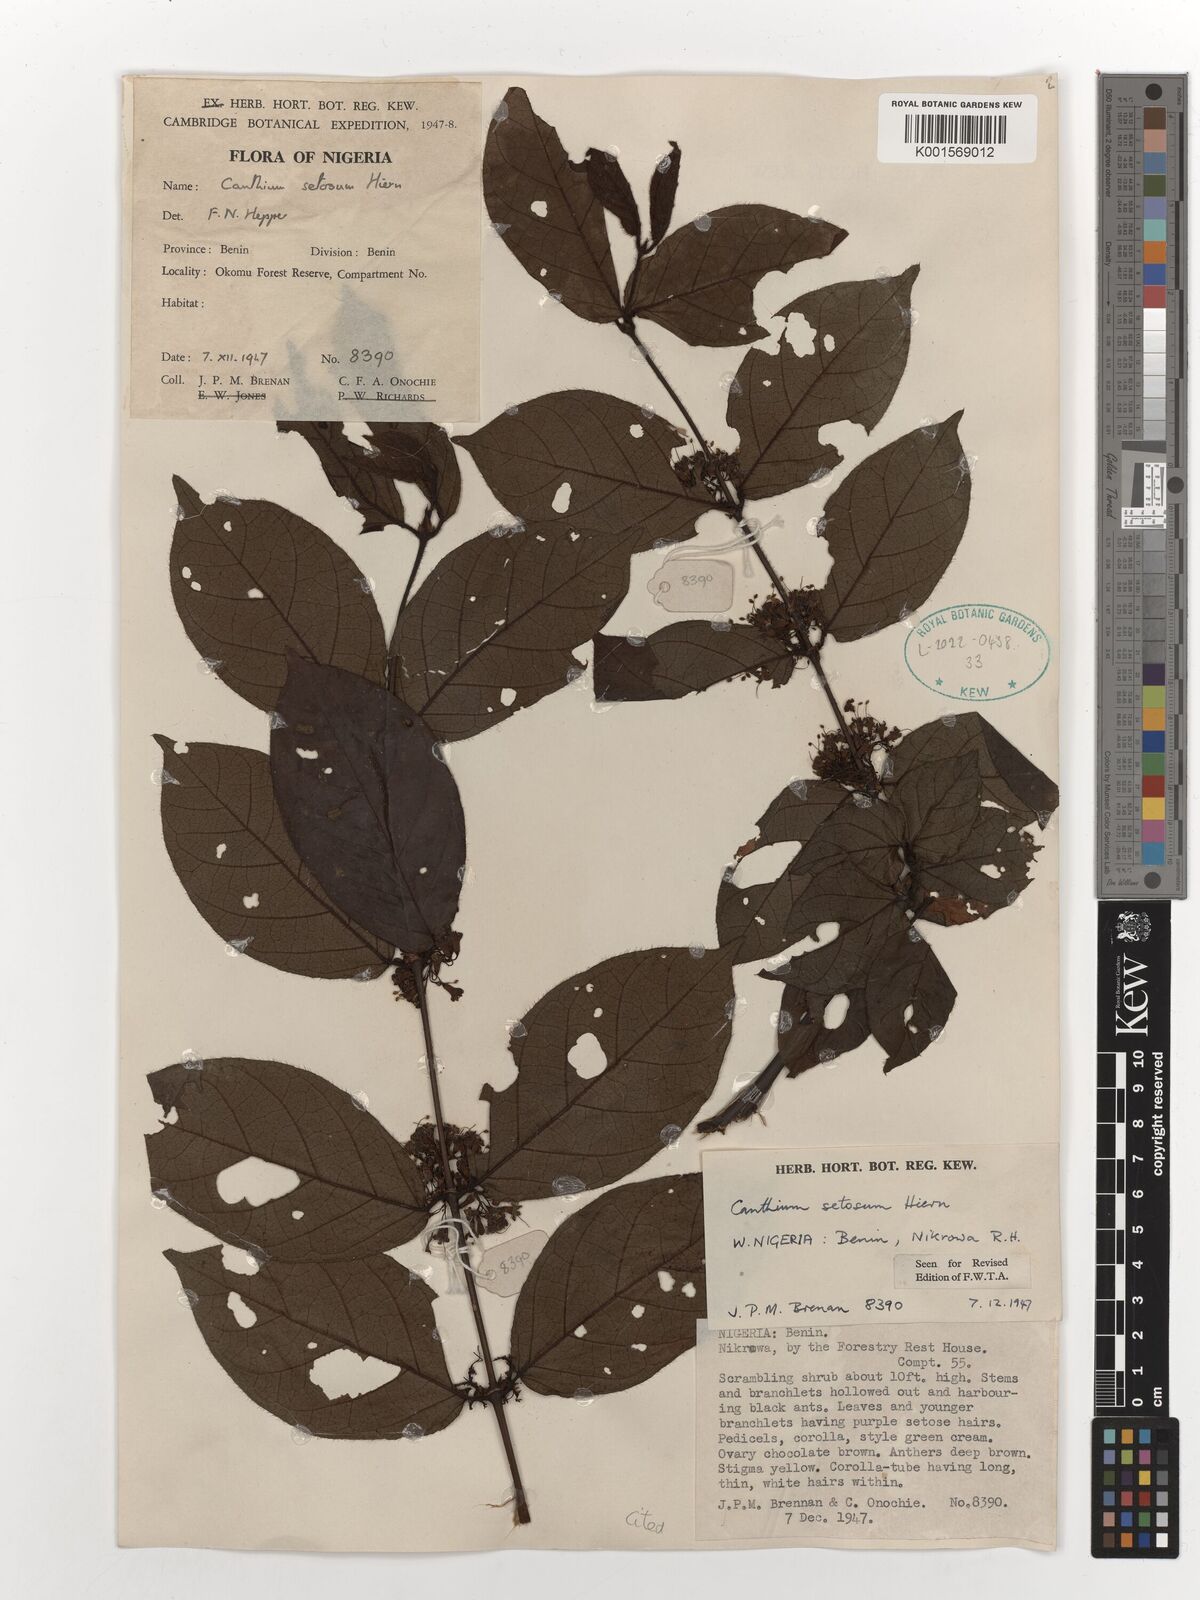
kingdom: Plantae
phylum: Tracheophyta
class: Magnoliopsida
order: Gentianales
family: Rubiaceae
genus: Keetia
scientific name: Keetia hispida
